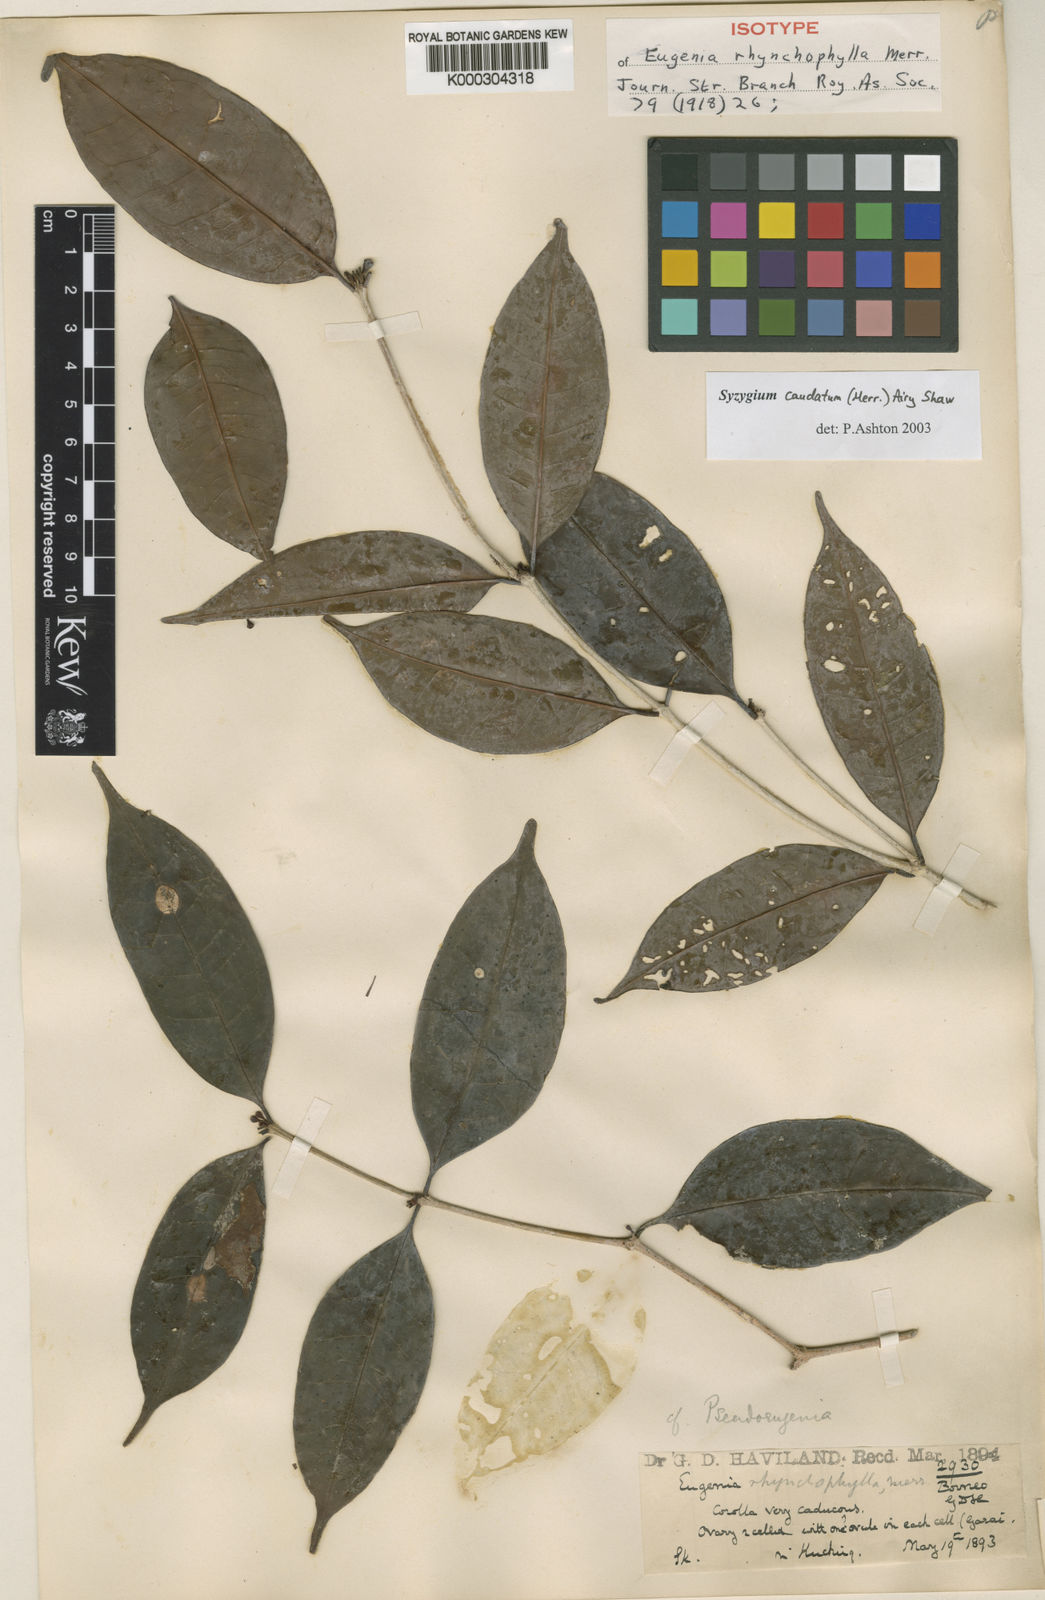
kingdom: Plantae
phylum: Tracheophyta
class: Magnoliopsida
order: Myrtales
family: Myrtaceae
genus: Syzygium
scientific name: Syzygium caudatum
